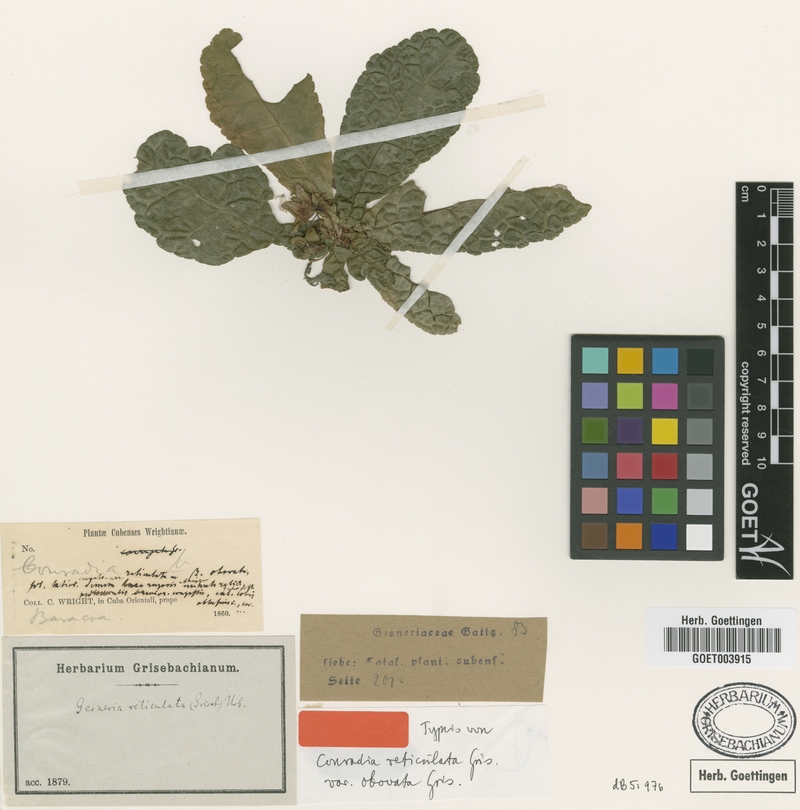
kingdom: Plantae
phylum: Tracheophyta
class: Magnoliopsida
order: Lamiales
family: Gesneriaceae
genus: Gesneria
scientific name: Gesneria reticulata
